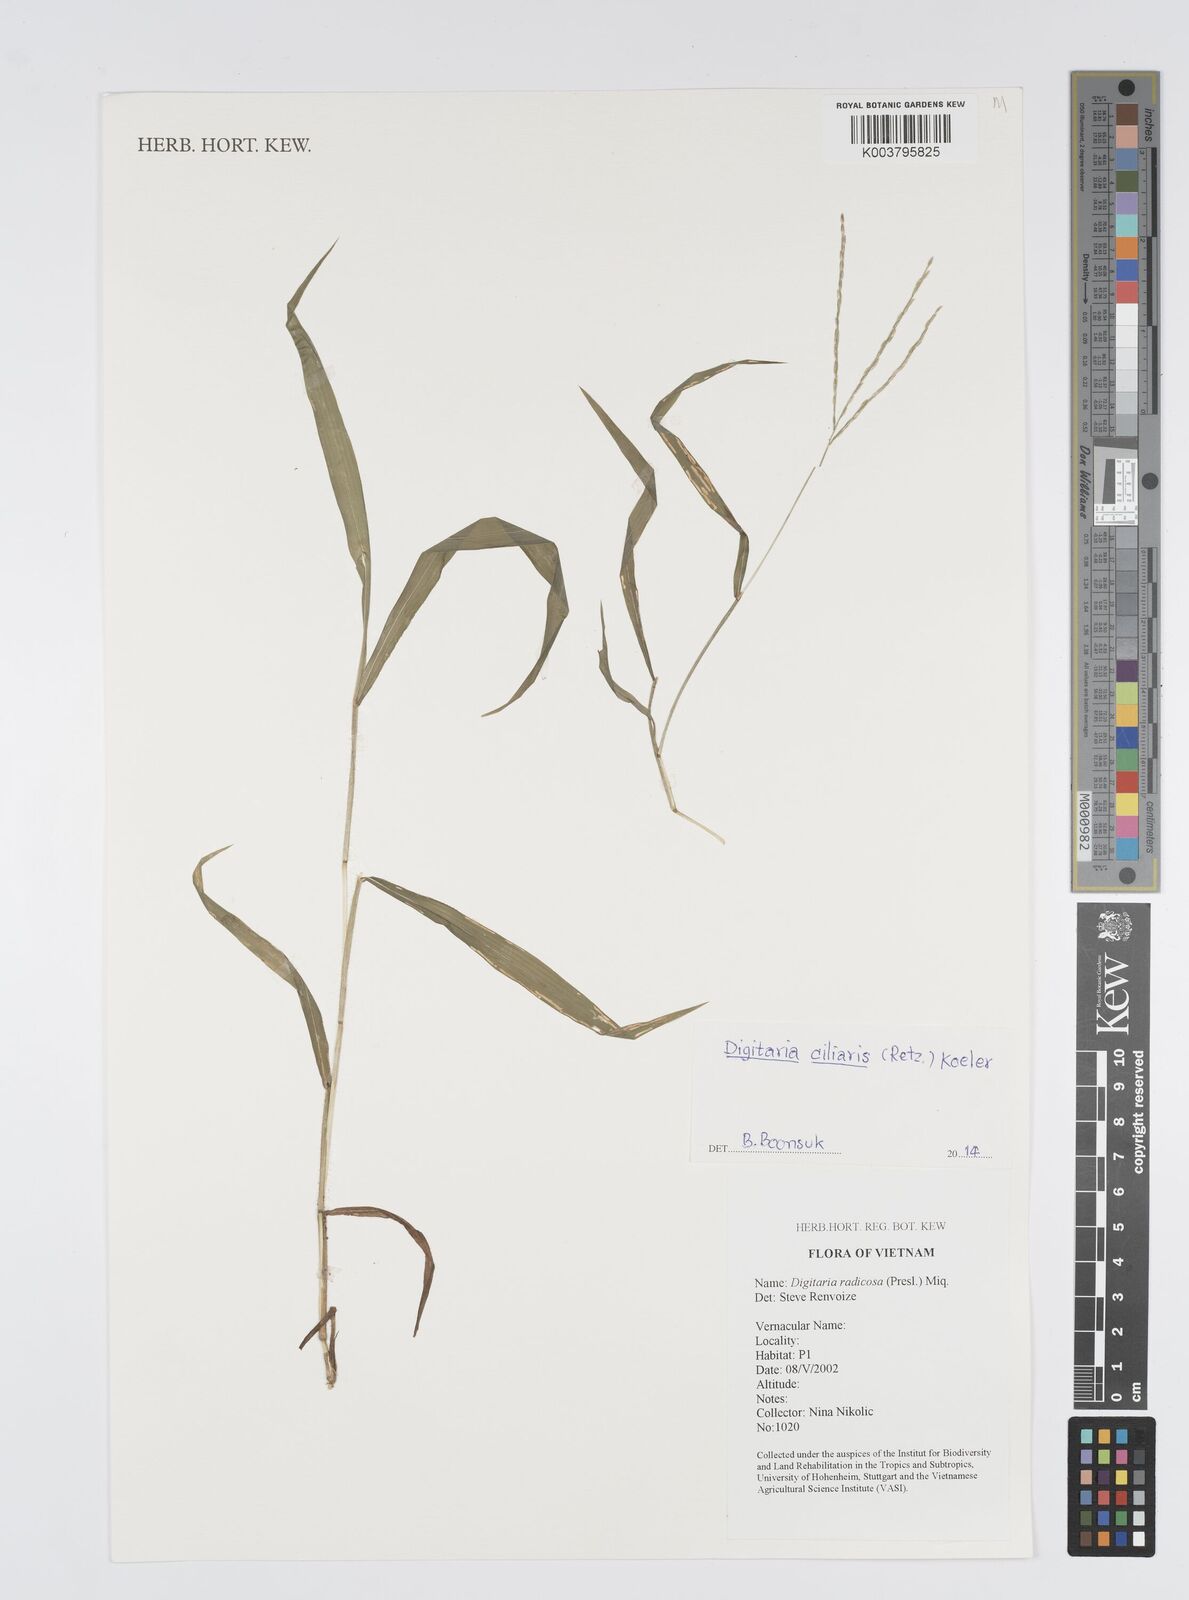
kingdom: Plantae
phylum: Tracheophyta
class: Liliopsida
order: Poales
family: Poaceae
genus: Digitaria
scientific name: Digitaria ciliaris
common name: Tropical finger-grass
